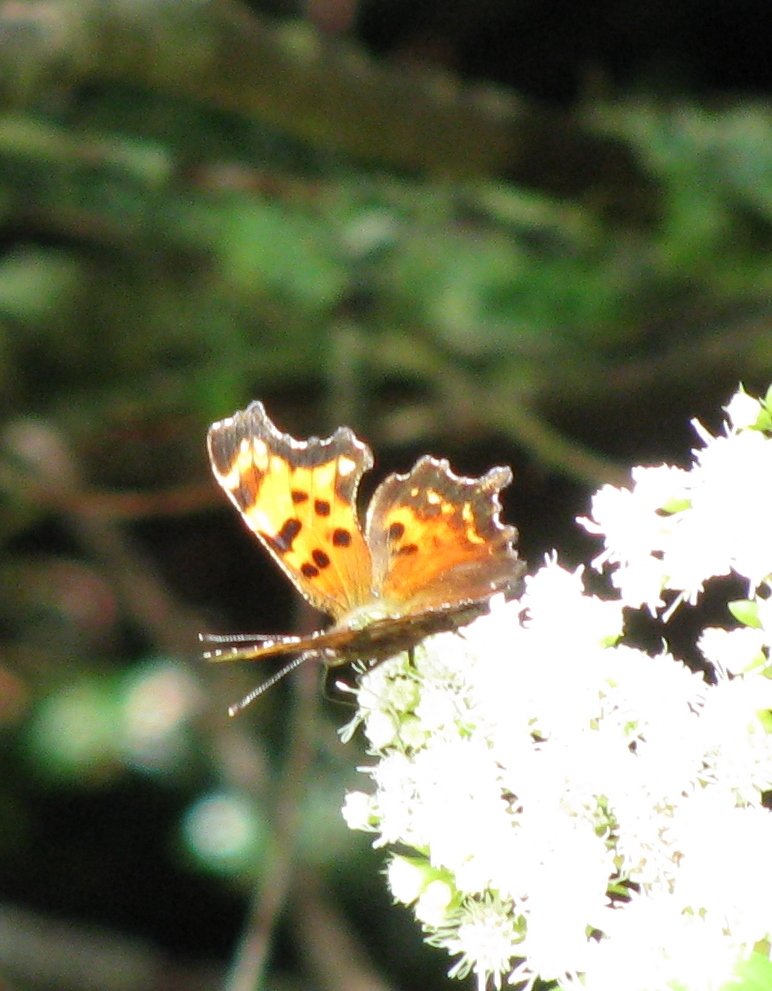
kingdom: Animalia
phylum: Arthropoda
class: Insecta
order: Lepidoptera
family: Nymphalidae
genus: Polygonia
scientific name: Polygonia faunus
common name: Green Comma
